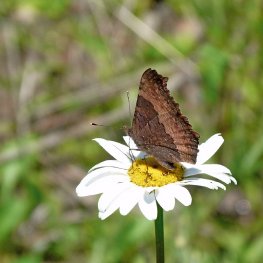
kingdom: Animalia
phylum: Arthropoda
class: Insecta
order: Lepidoptera
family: Nymphalidae
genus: Aglais
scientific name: Aglais milberti
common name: Milbert's Tortoiseshell
